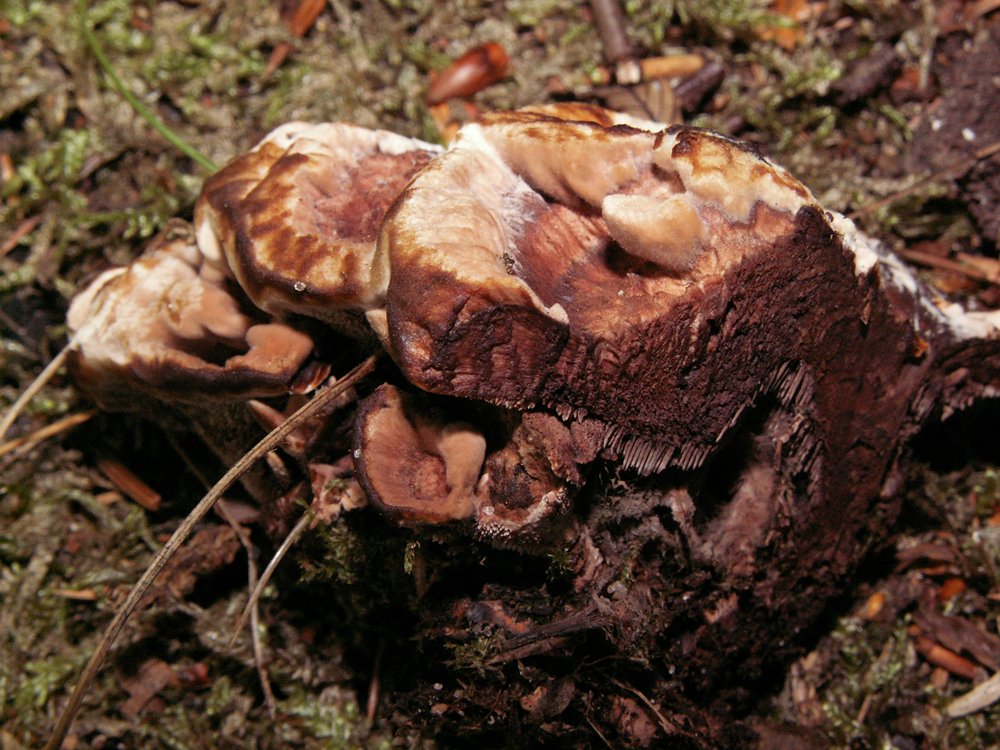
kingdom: Fungi
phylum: Basidiomycota
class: Agaricomycetes
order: Thelephorales
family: Bankeraceae
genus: Hydnellum
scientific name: Hydnellum concrescens
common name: bæltet korkpigsvamp
